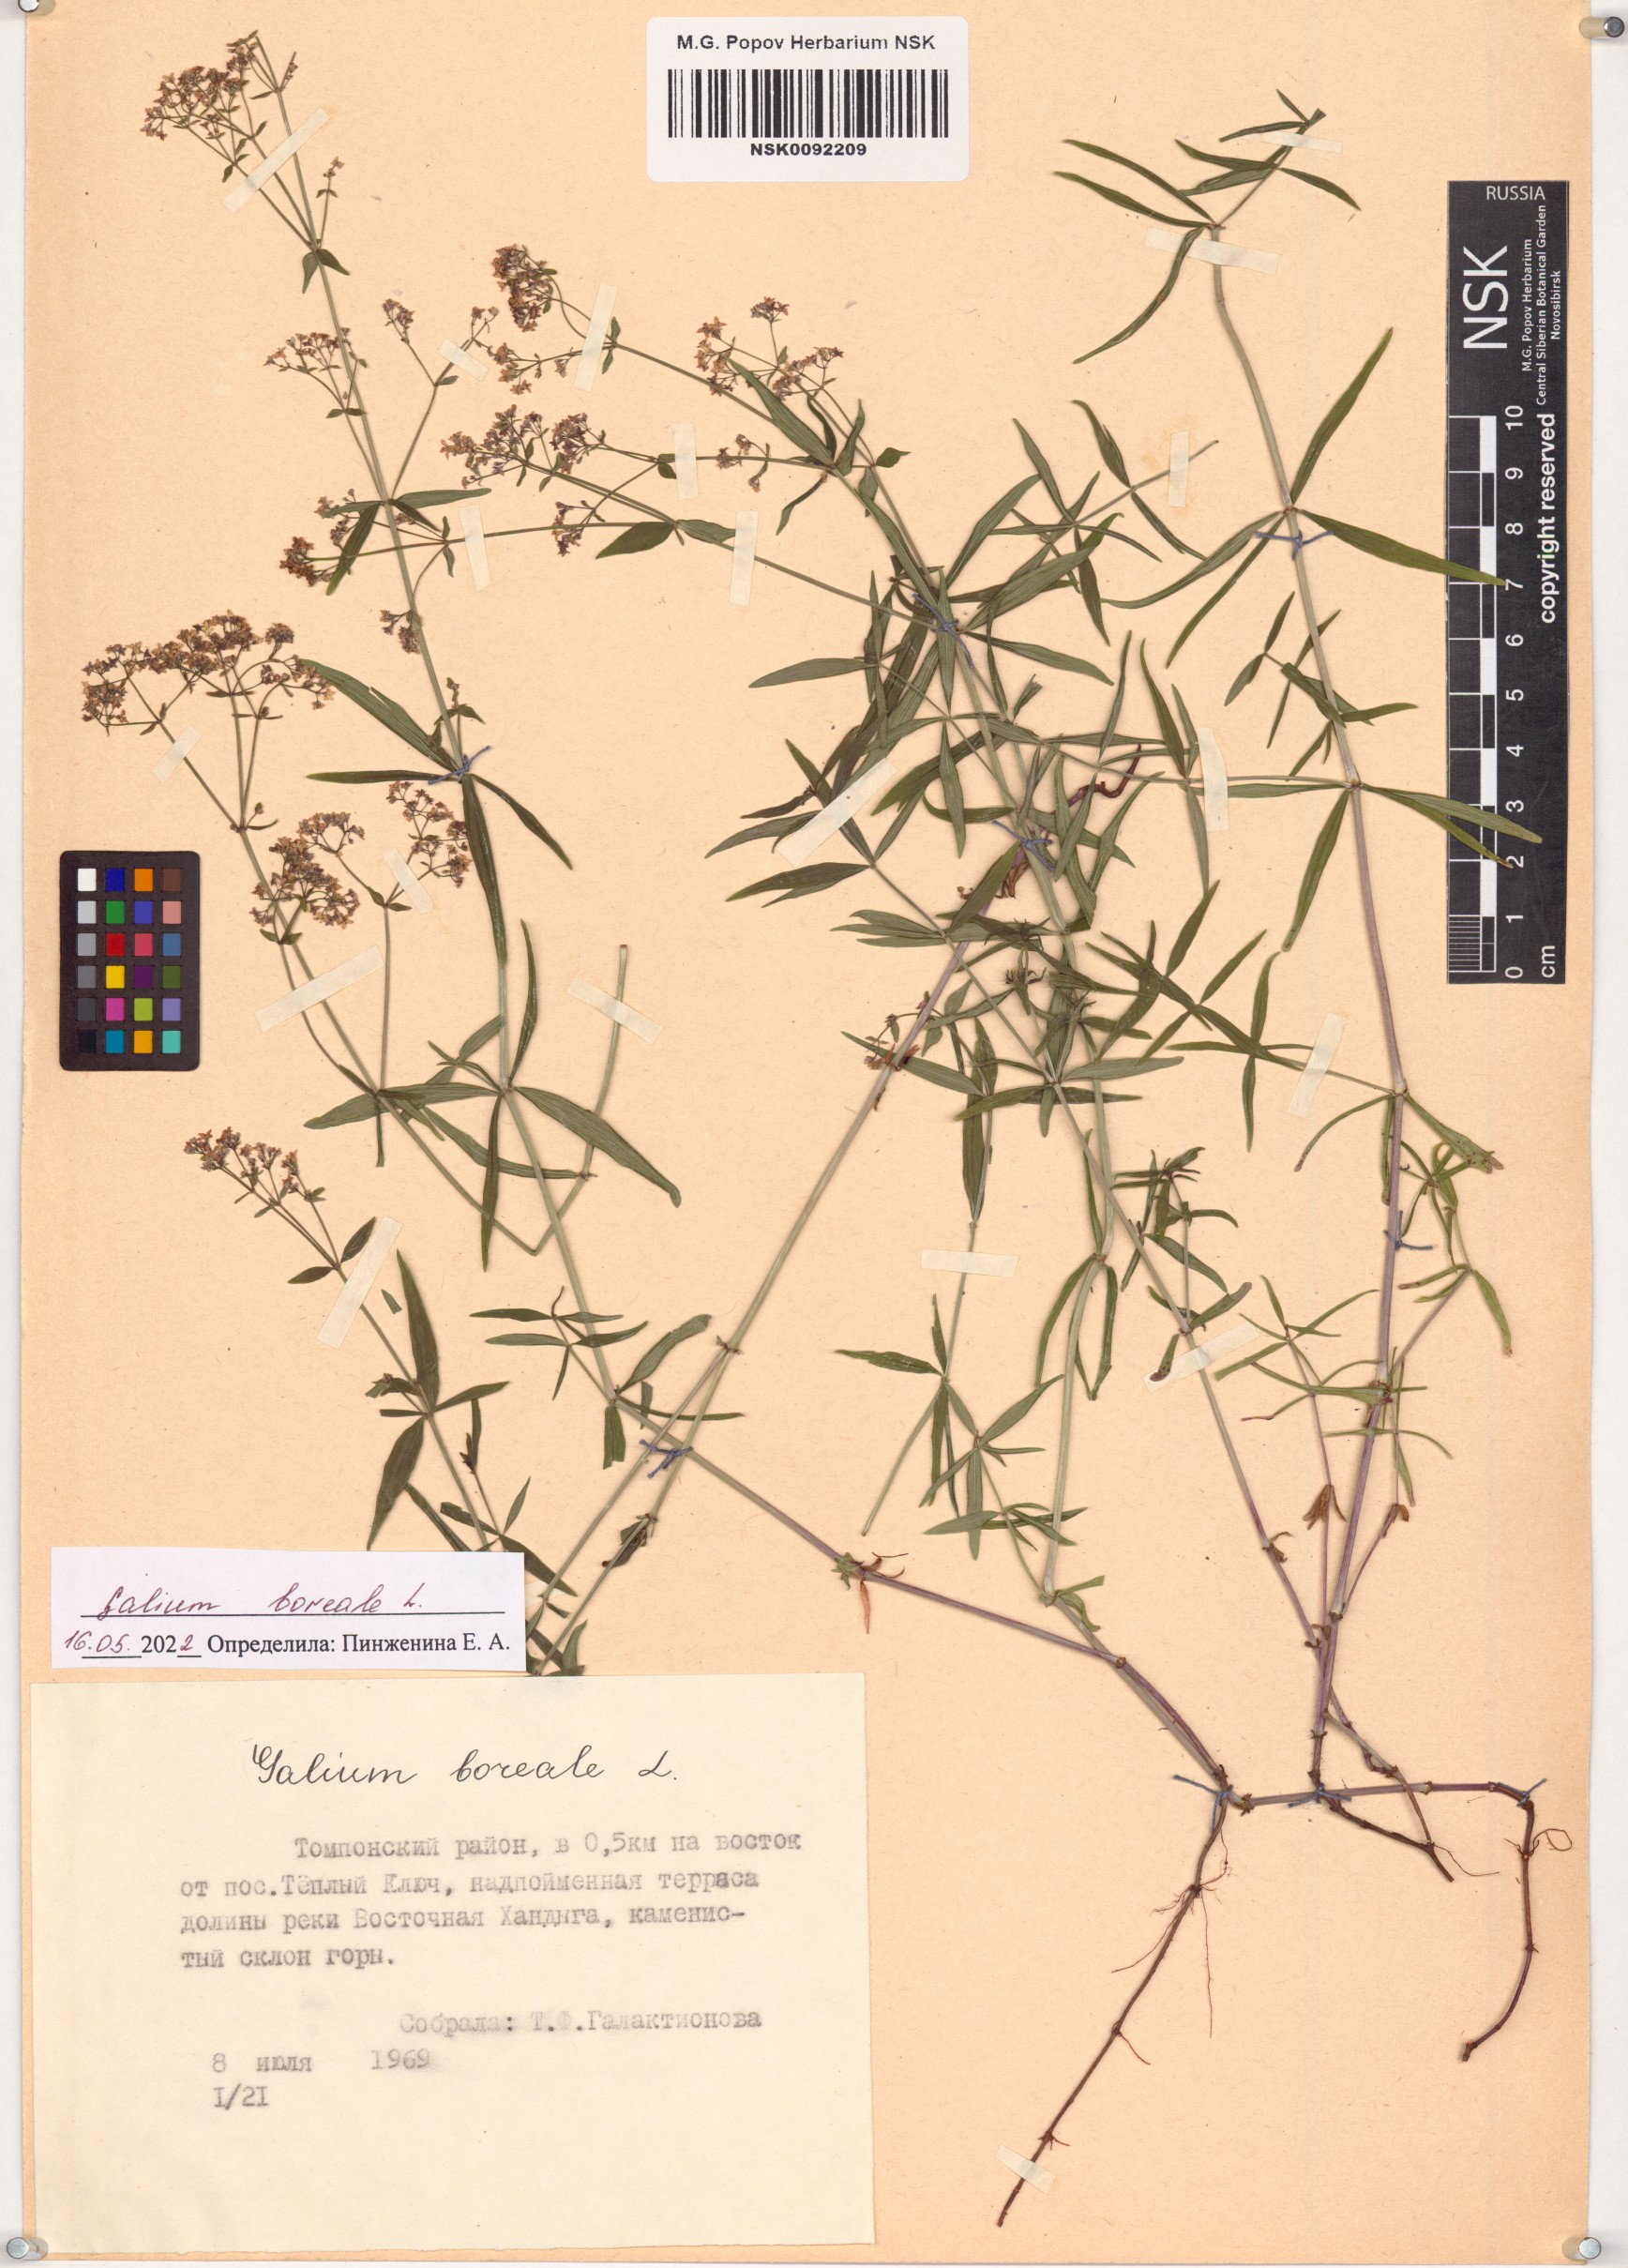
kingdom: Plantae
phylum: Tracheophyta
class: Magnoliopsida
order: Gentianales
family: Rubiaceae
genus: Galium
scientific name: Galium boreale
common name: Northern bedstraw
